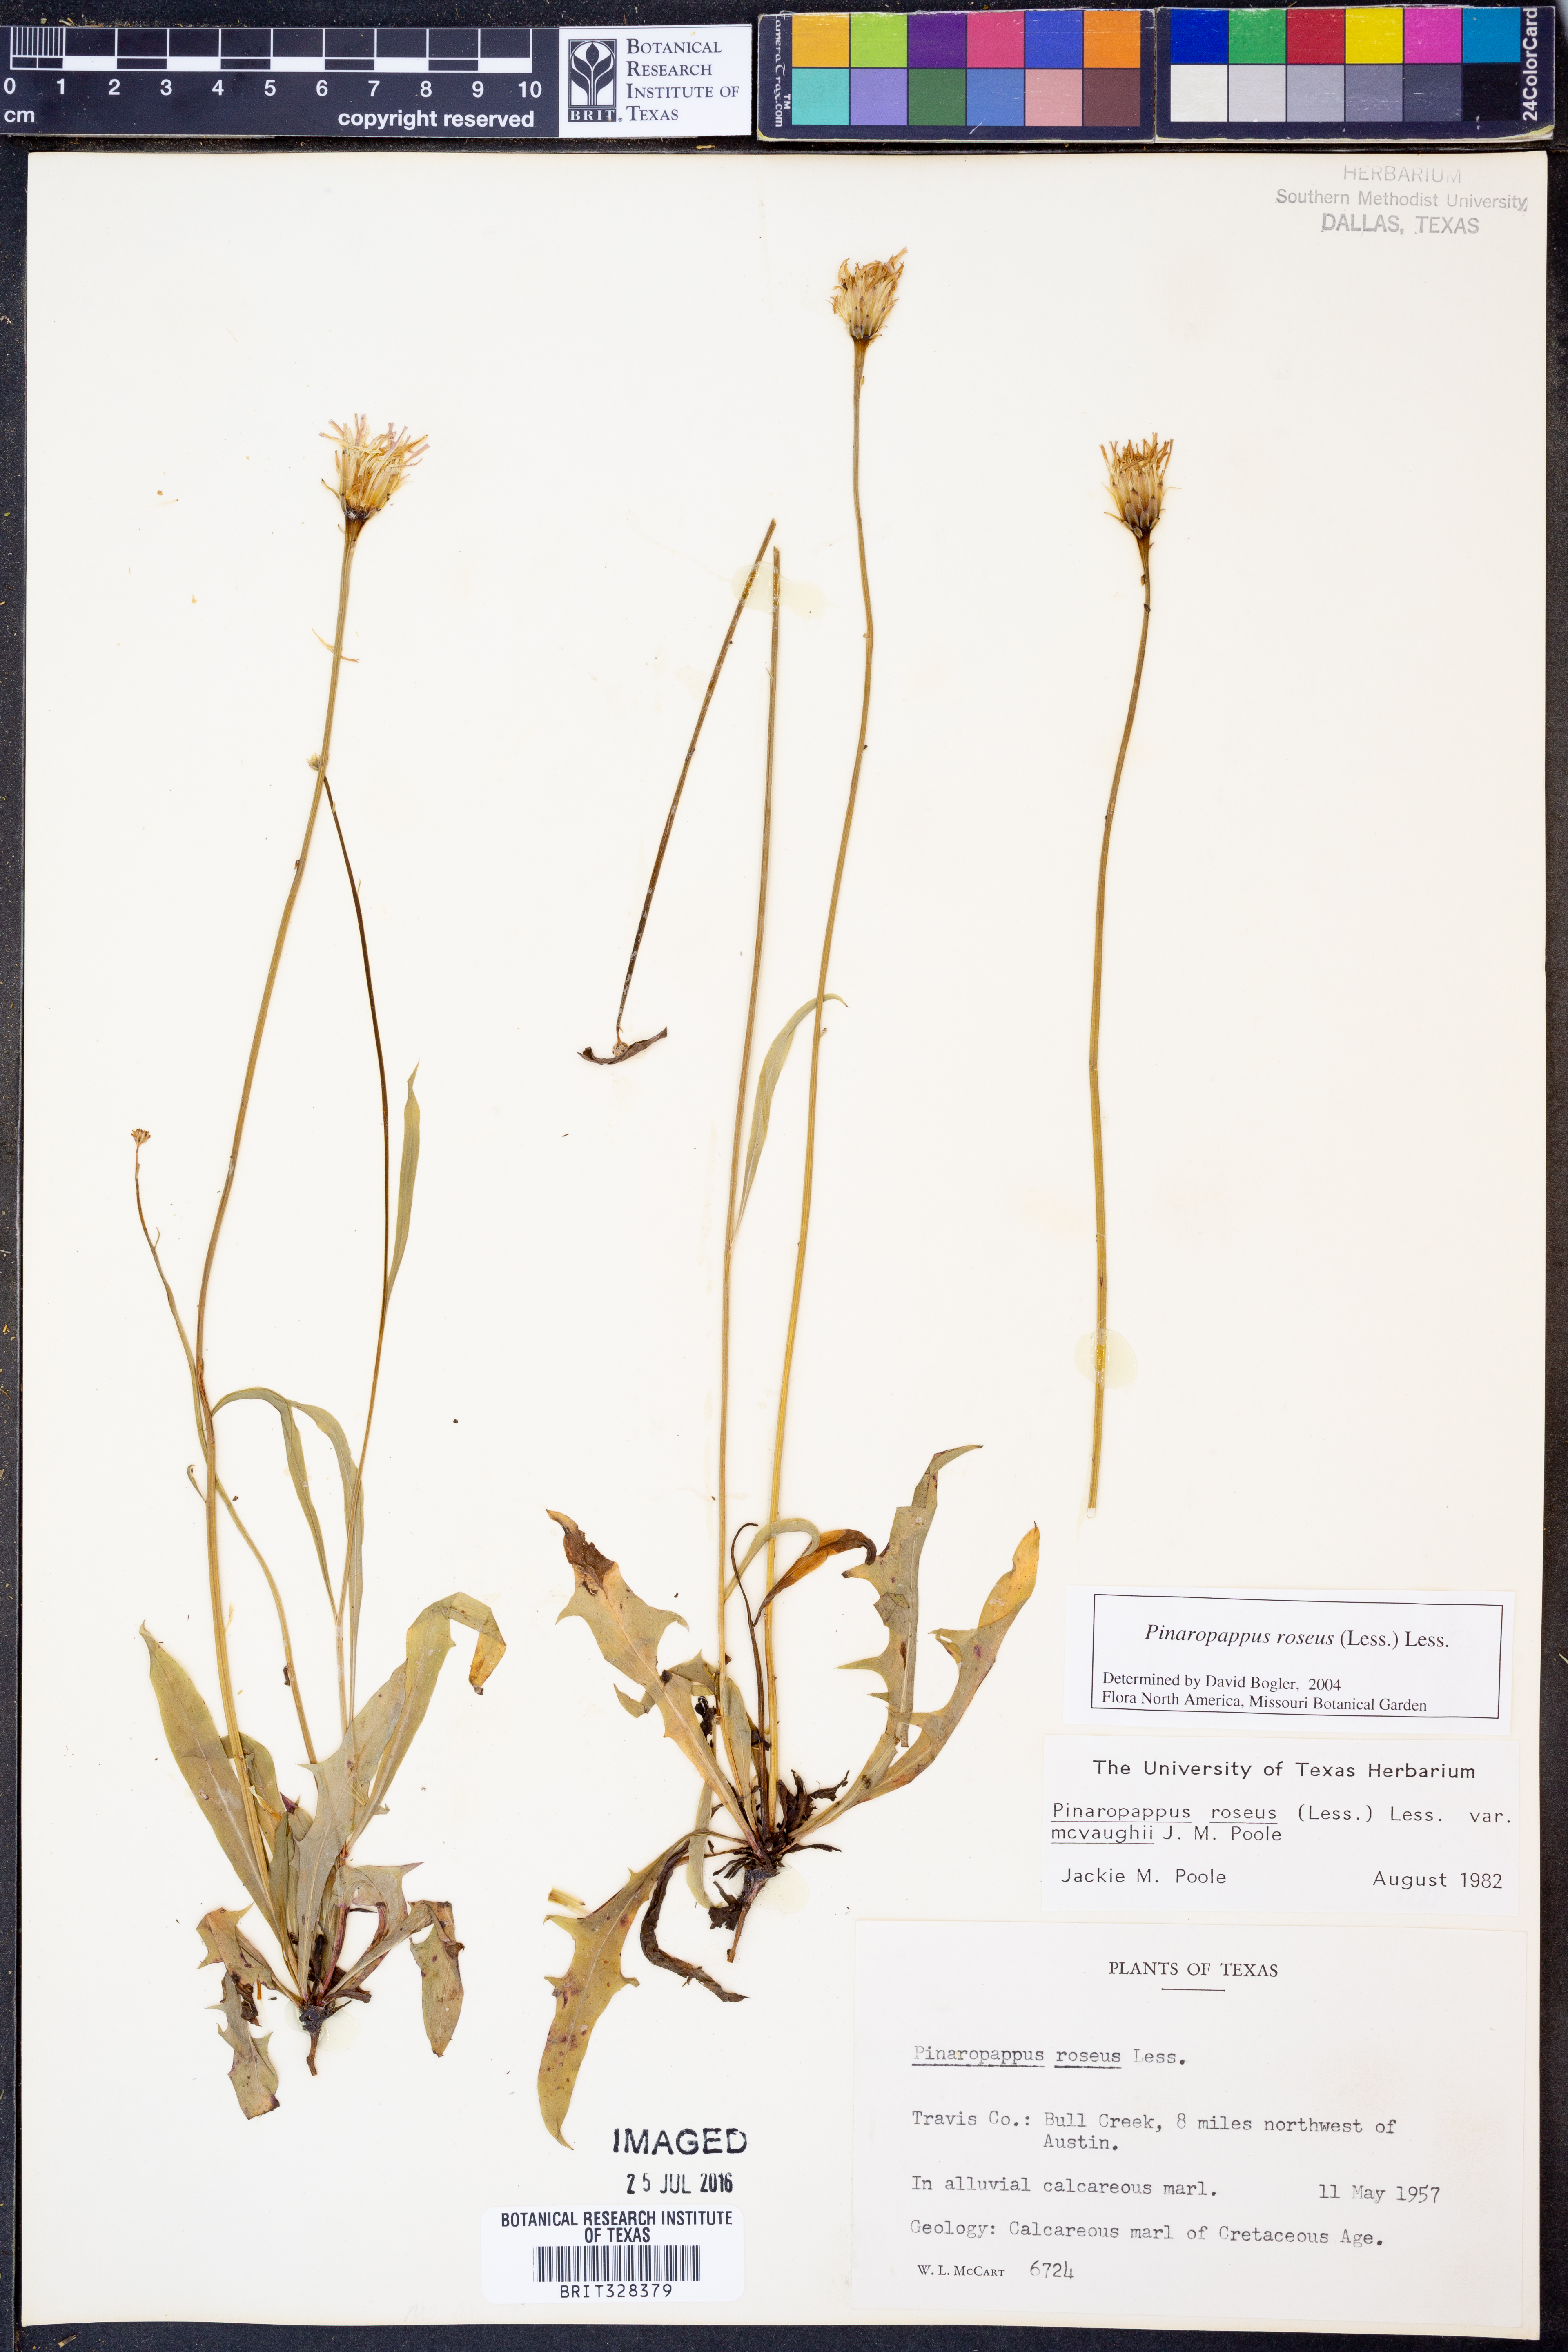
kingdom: Plantae
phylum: Tracheophyta
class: Magnoliopsida
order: Asterales
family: Asteraceae
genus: Pinaropappus
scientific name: Pinaropappus roseus
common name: Rock-lettuce
